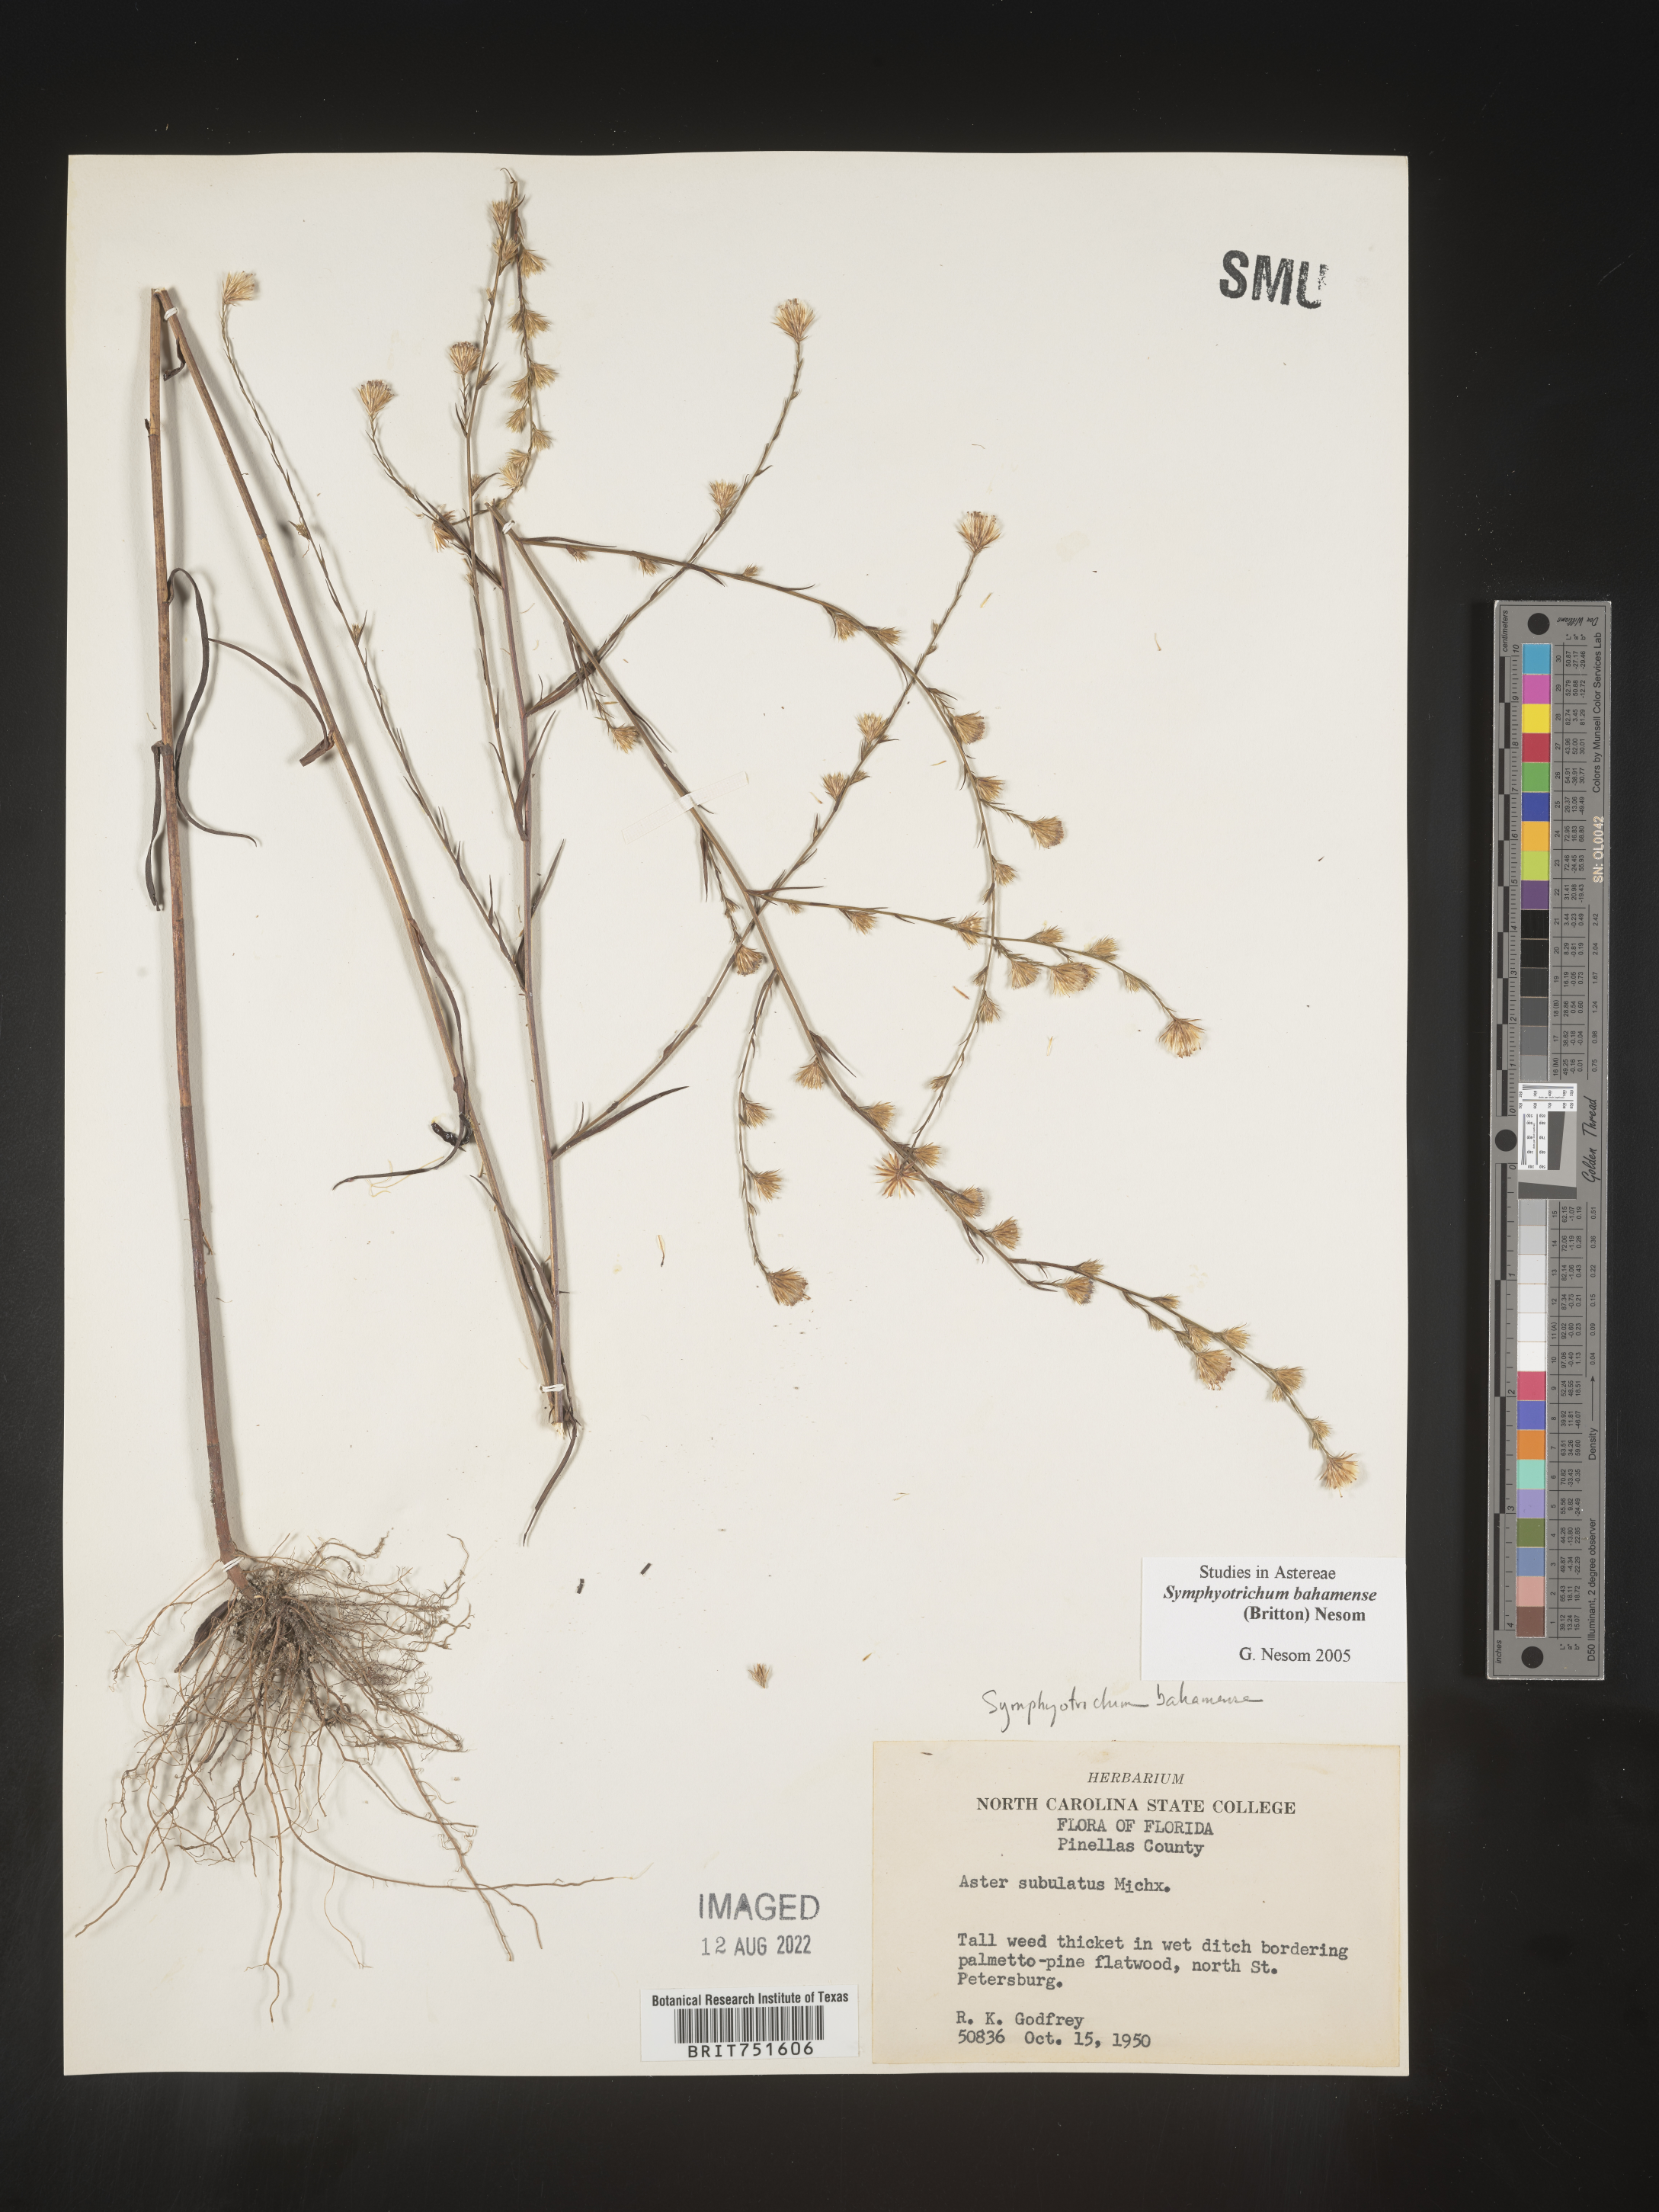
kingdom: Plantae
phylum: Tracheophyta
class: Magnoliopsida
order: Asterales
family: Asteraceae
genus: Symphyotrichum
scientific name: Symphyotrichum subulatum
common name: Annual saltmarsh aster
